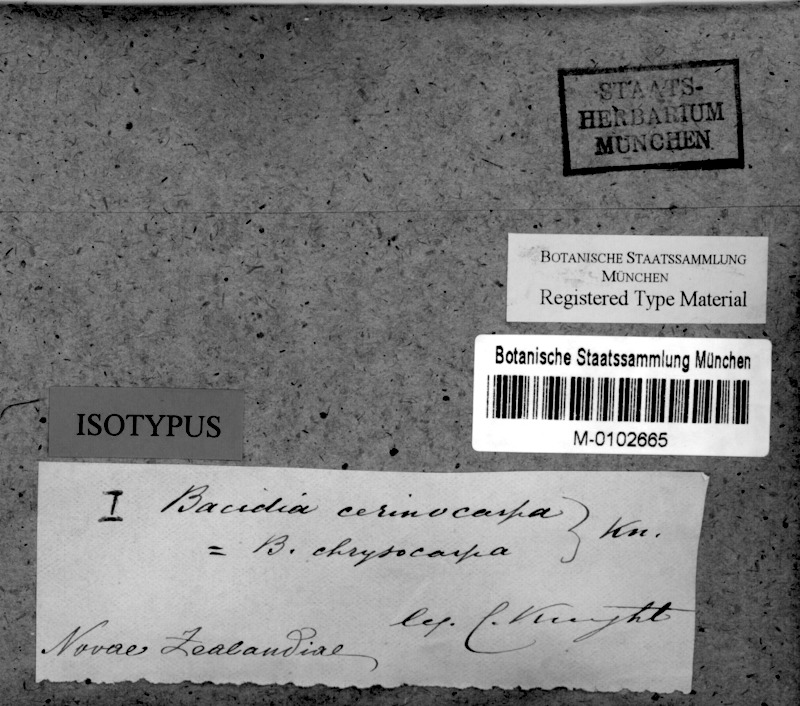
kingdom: Fungi
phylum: Ascomycota
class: Lecanoromycetes
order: Lecideales
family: Lecideaceae
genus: Lecidea
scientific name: Lecidea
